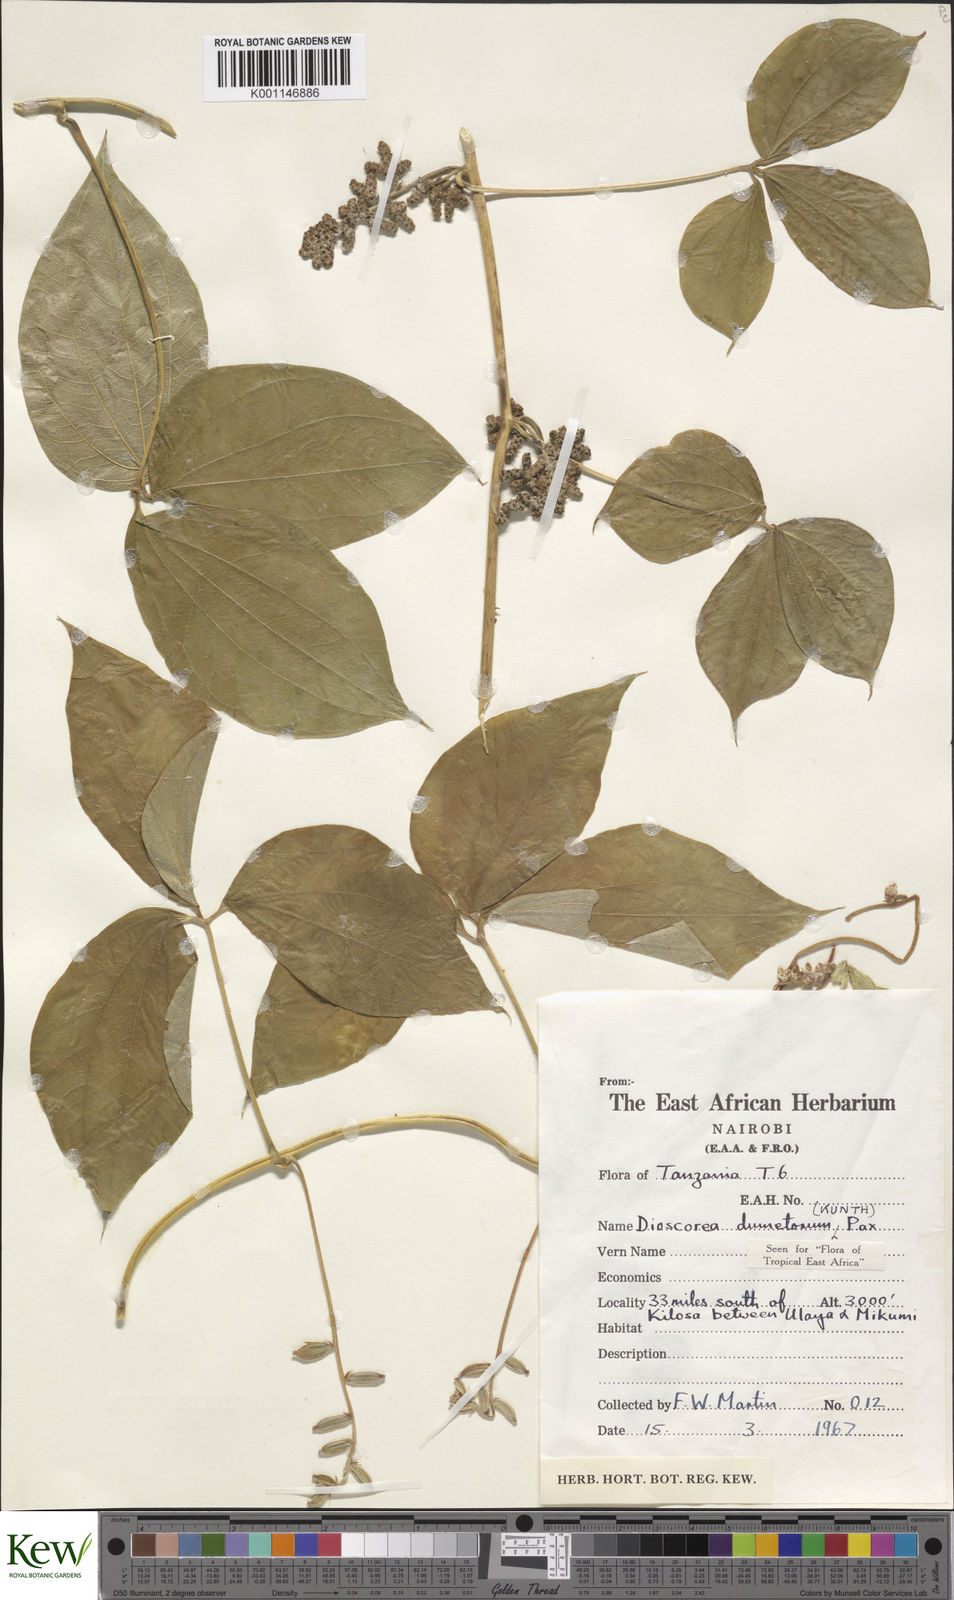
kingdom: Plantae
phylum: Tracheophyta
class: Liliopsida
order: Dioscoreales
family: Dioscoreaceae
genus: Dioscorea
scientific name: Dioscorea dumetorum
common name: African bitter yam
